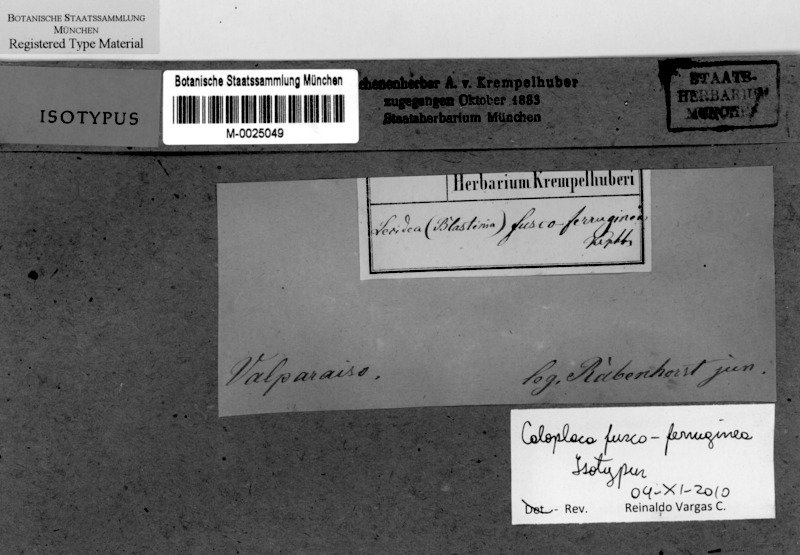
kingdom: Fungi
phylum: Ascomycota
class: Lecanoromycetes
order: Teloschistales
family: Teloschistaceae
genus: Caloplaca
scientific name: Caloplaca
